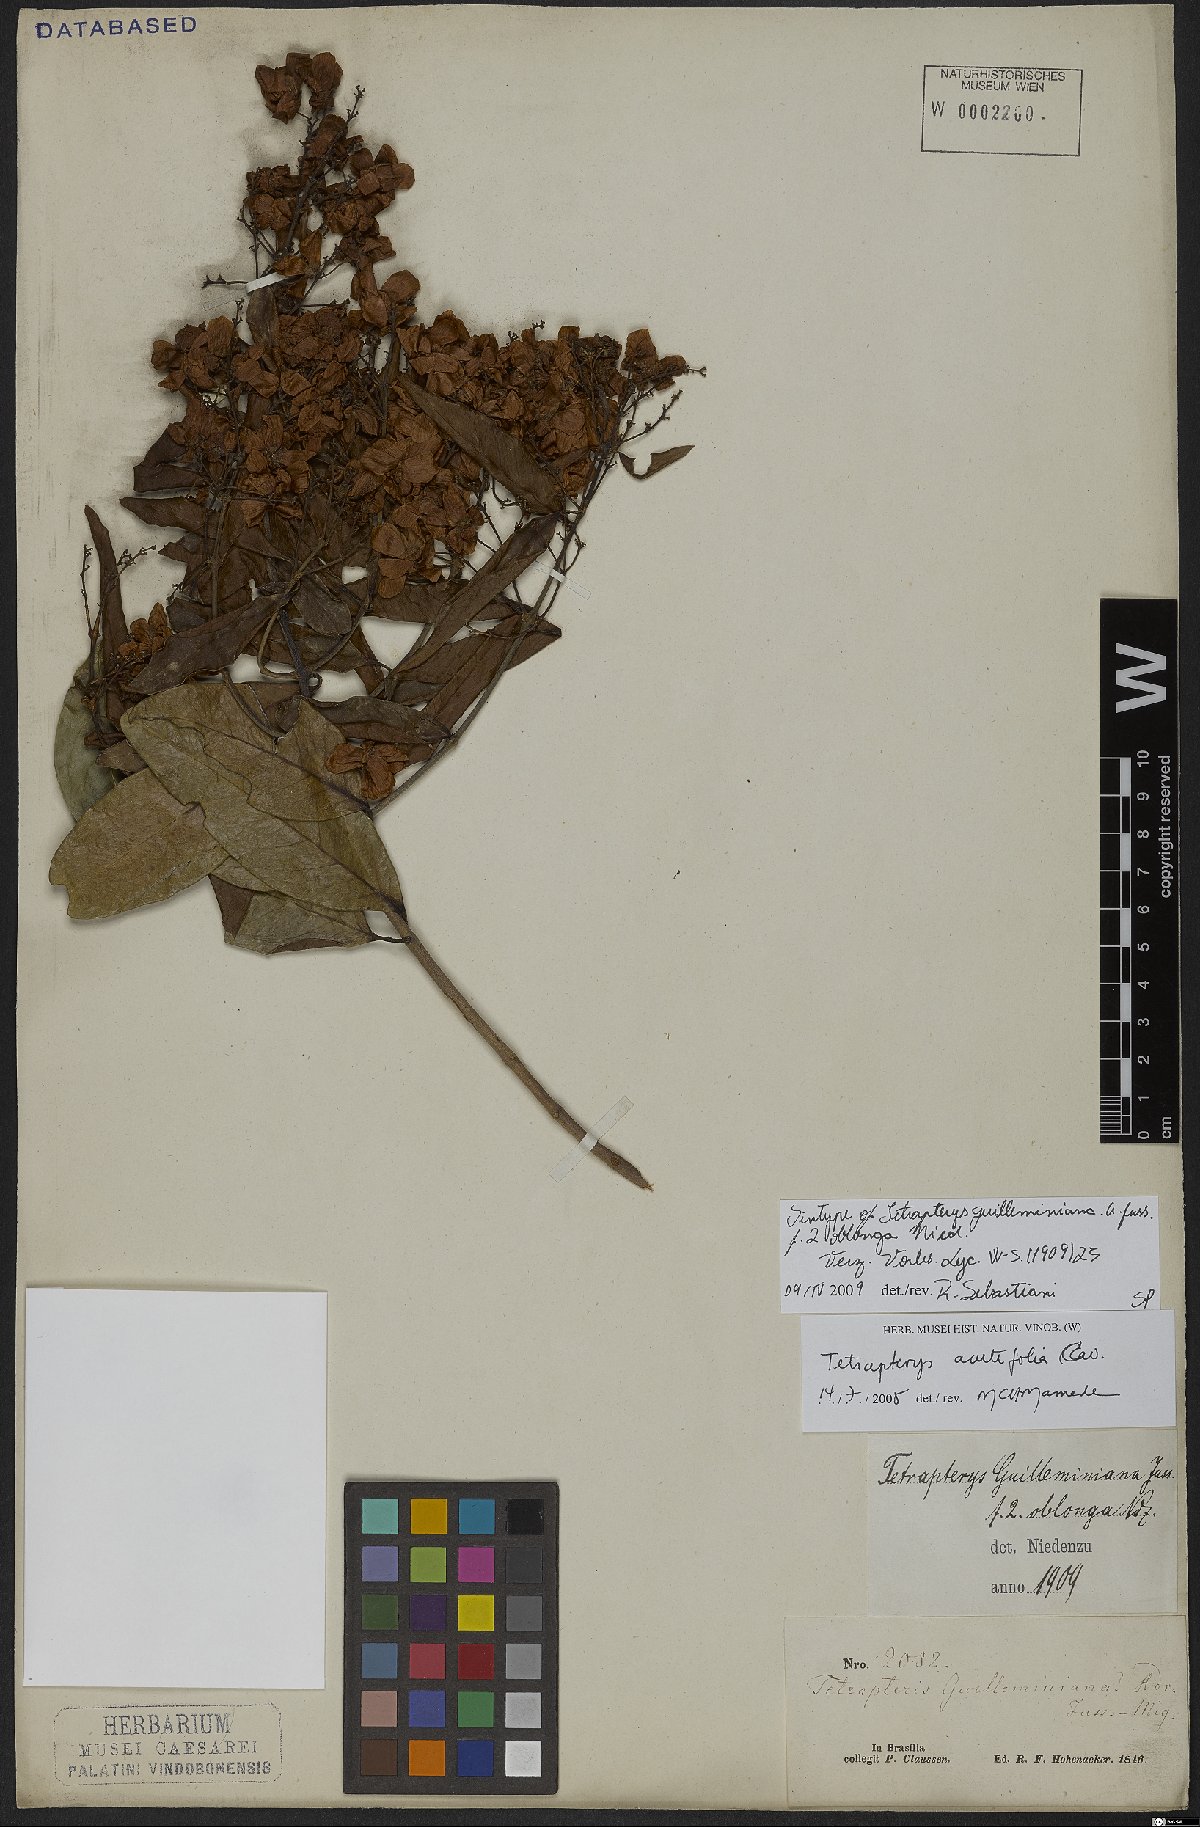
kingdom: Plantae
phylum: Tracheophyta
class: Magnoliopsida
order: Malpighiales
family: Malpighiaceae
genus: Niedenzuella
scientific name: Niedenzuella acutifolia
